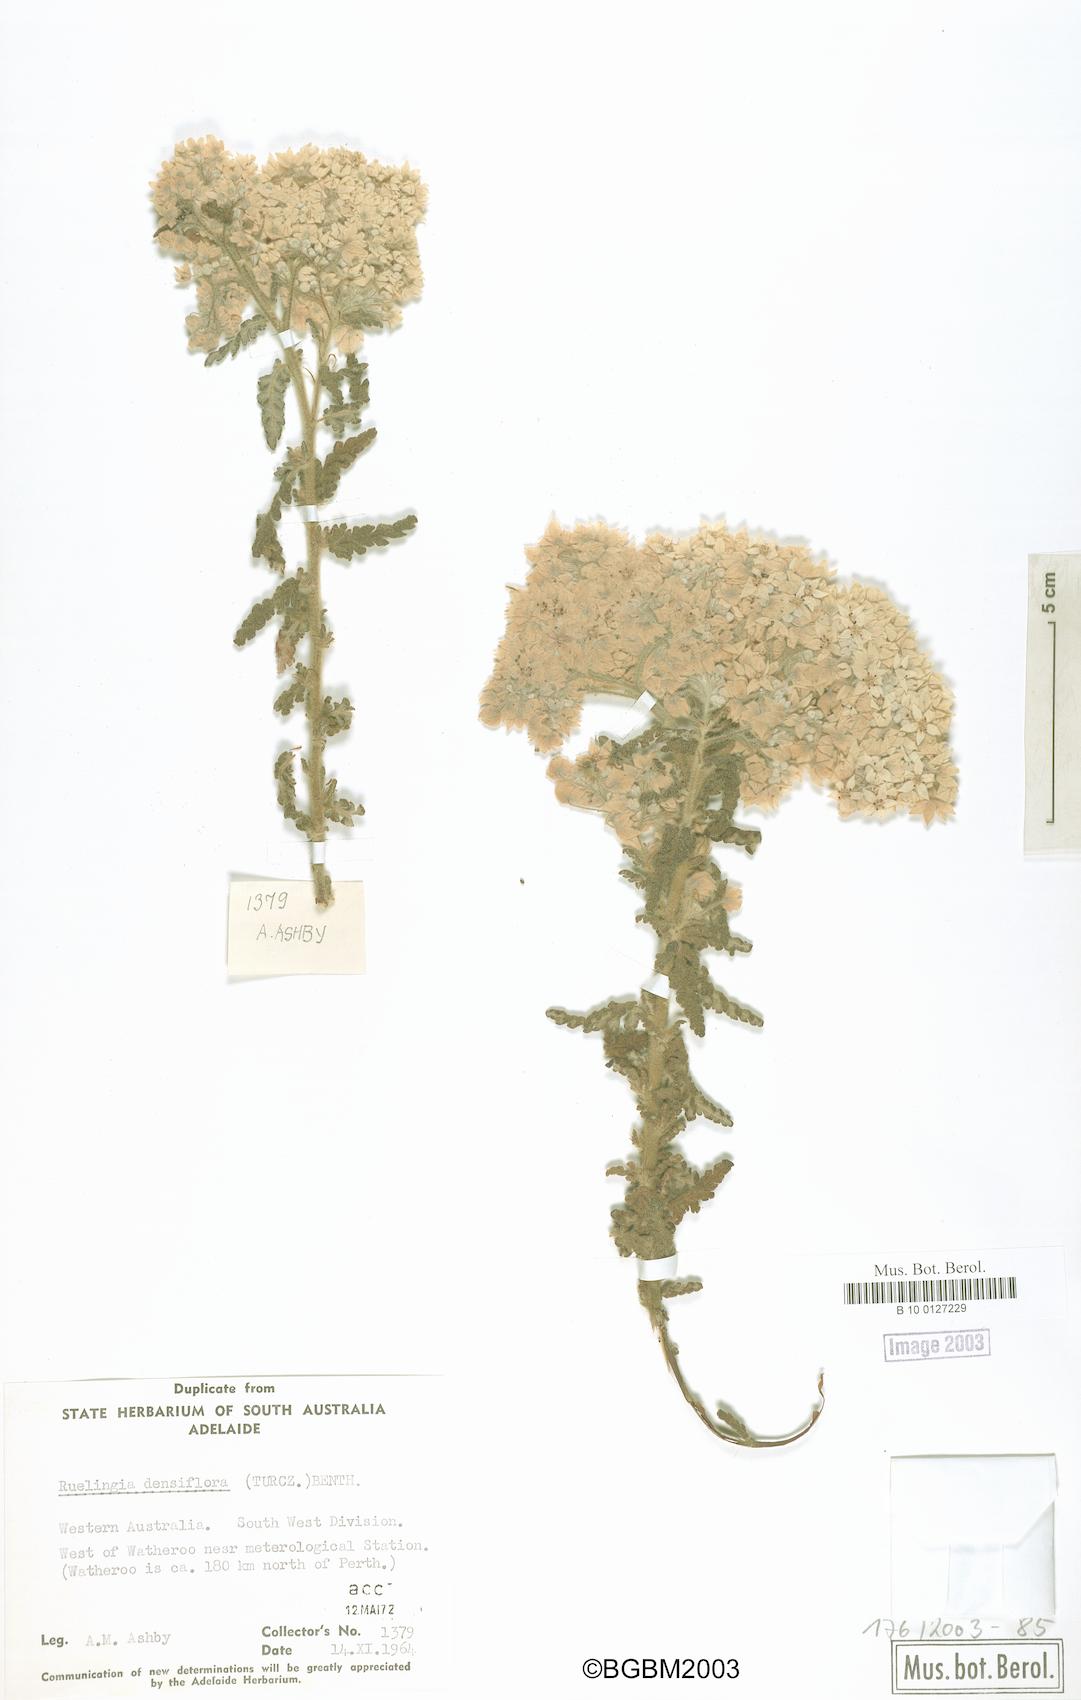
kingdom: Plantae
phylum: Tracheophyta
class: Magnoliopsida
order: Malvales
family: Malvaceae
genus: Commersonia
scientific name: Commersonia densiflora
